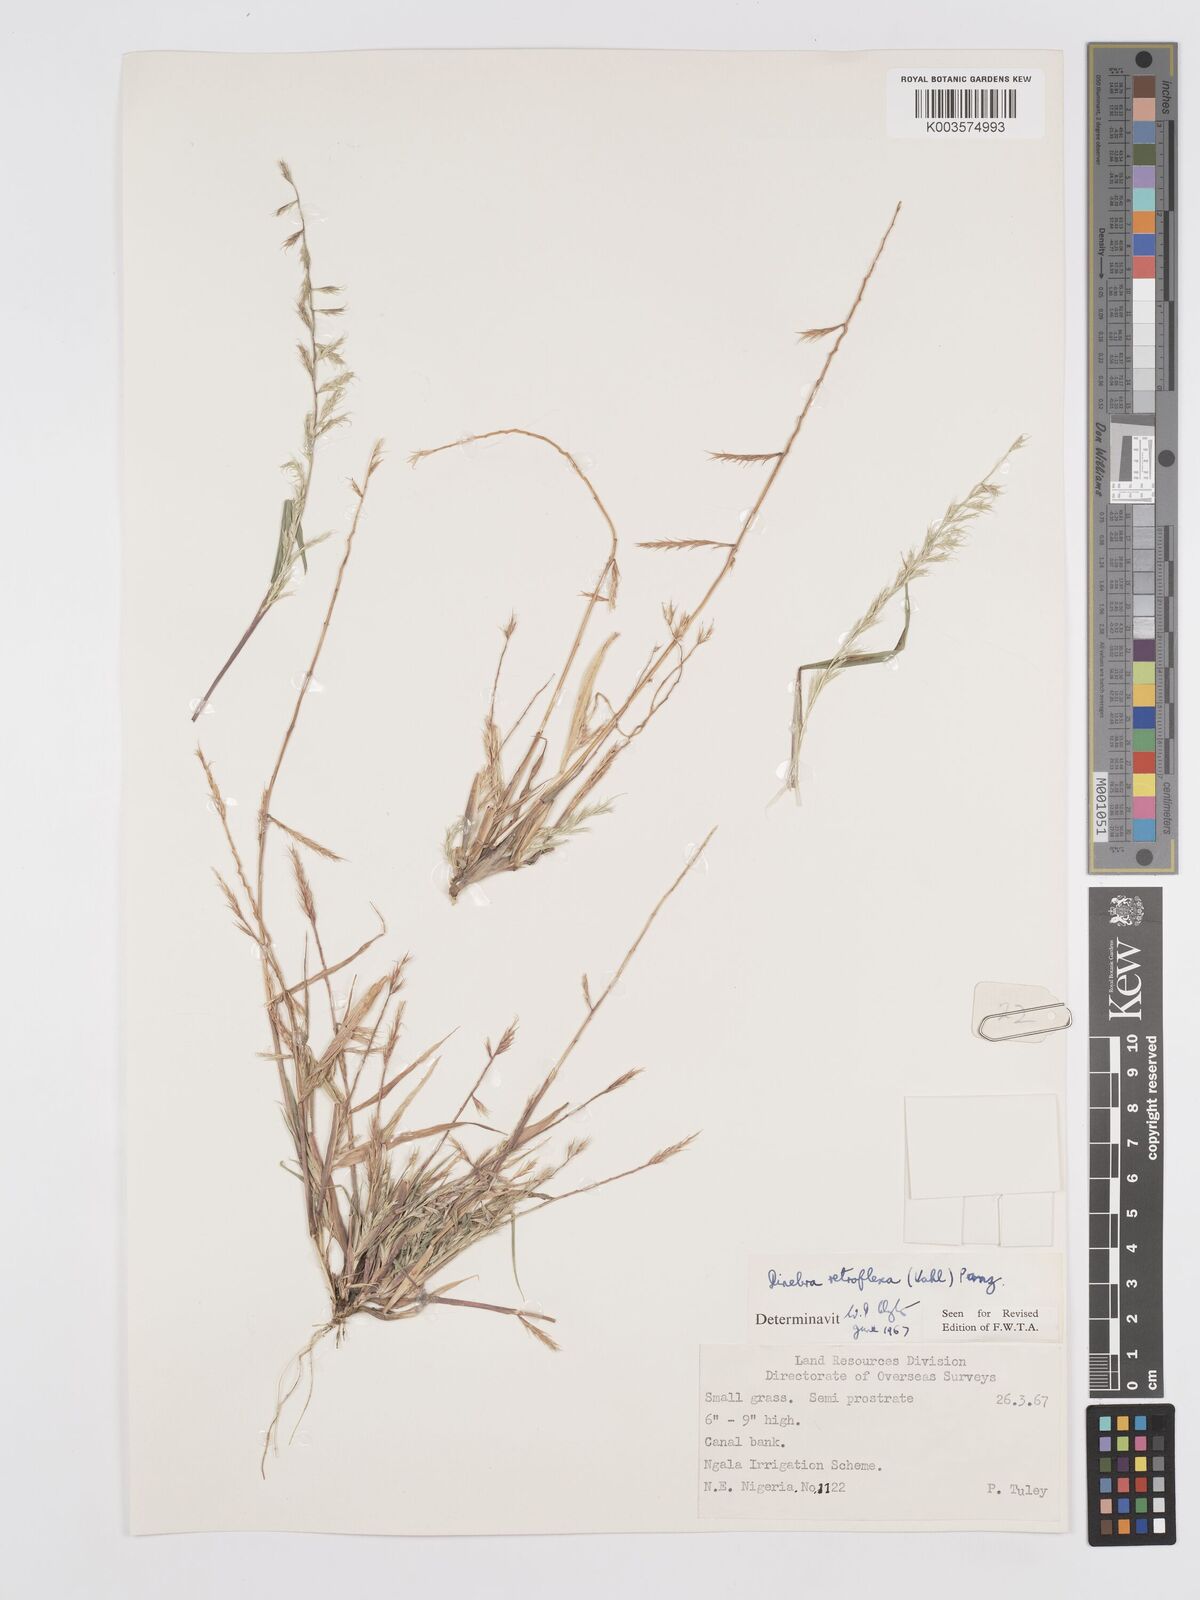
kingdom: Plantae
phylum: Tracheophyta
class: Liliopsida
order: Poales
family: Poaceae
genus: Dinebra
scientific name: Dinebra retroflexa
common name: Viper grass
